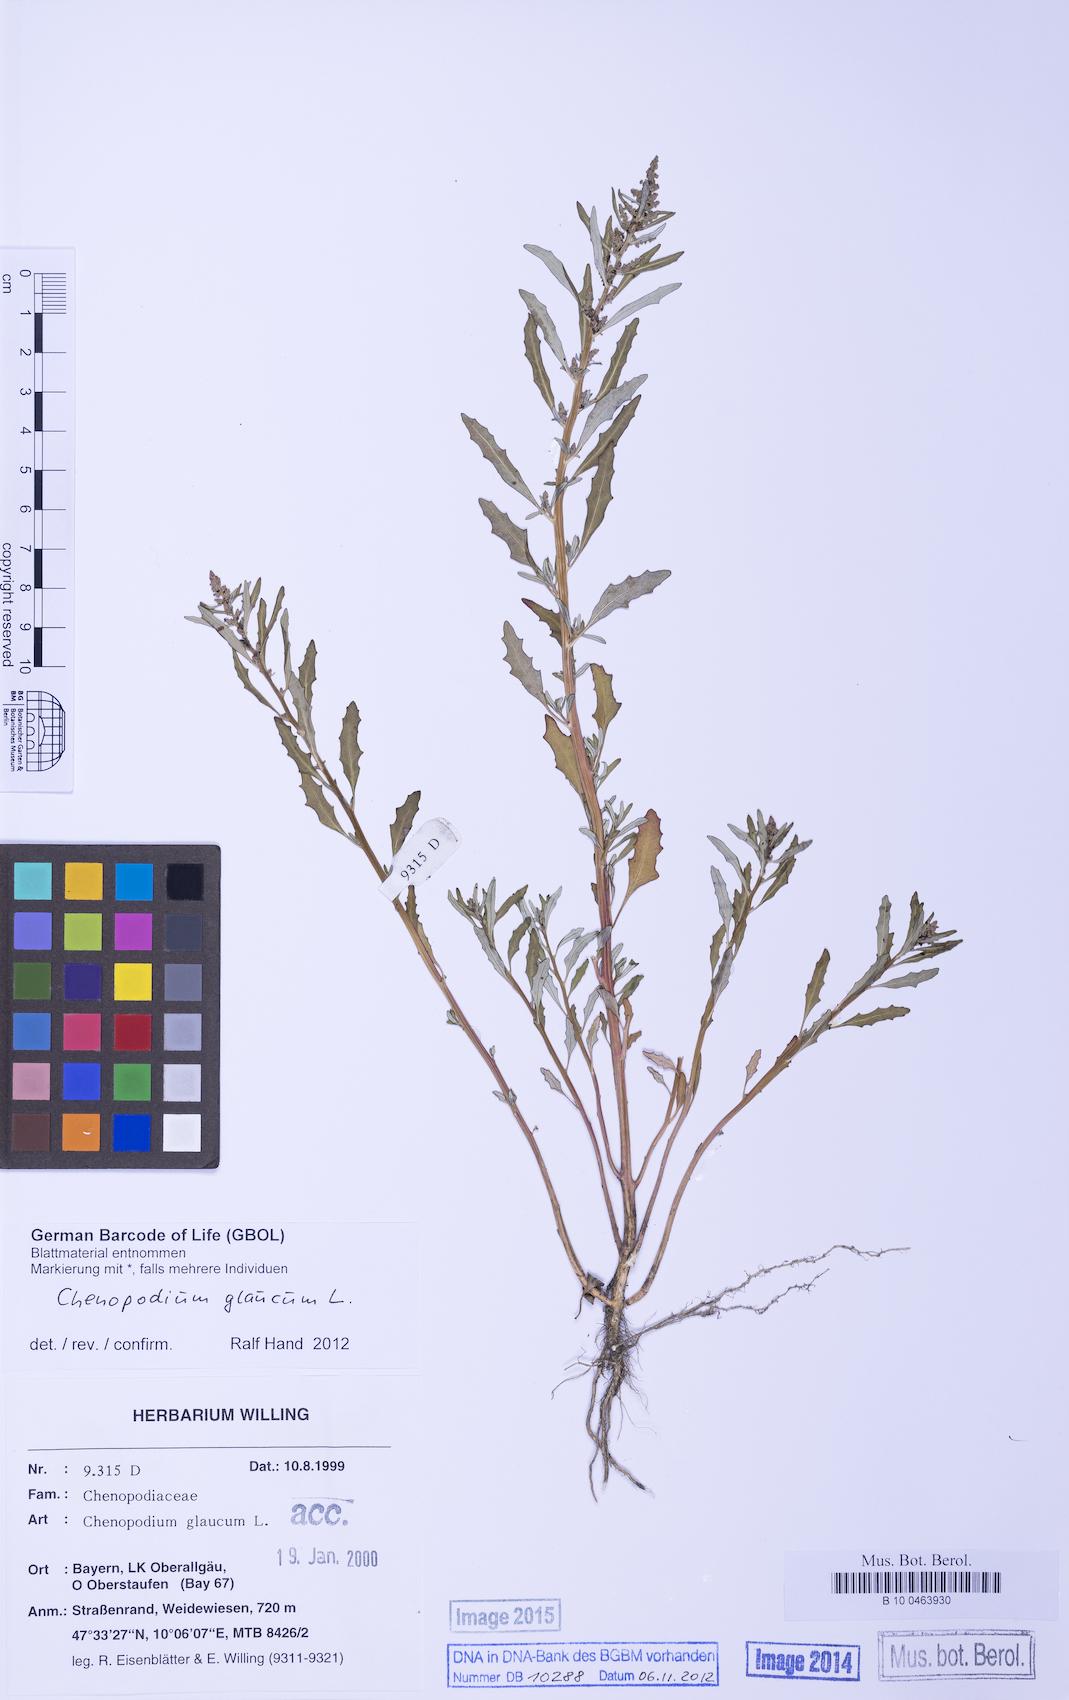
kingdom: Plantae
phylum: Tracheophyta
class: Magnoliopsida
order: Caryophyllales
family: Amaranthaceae
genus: Oxybasis
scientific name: Oxybasis glauca
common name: Glaucous goosefoot
